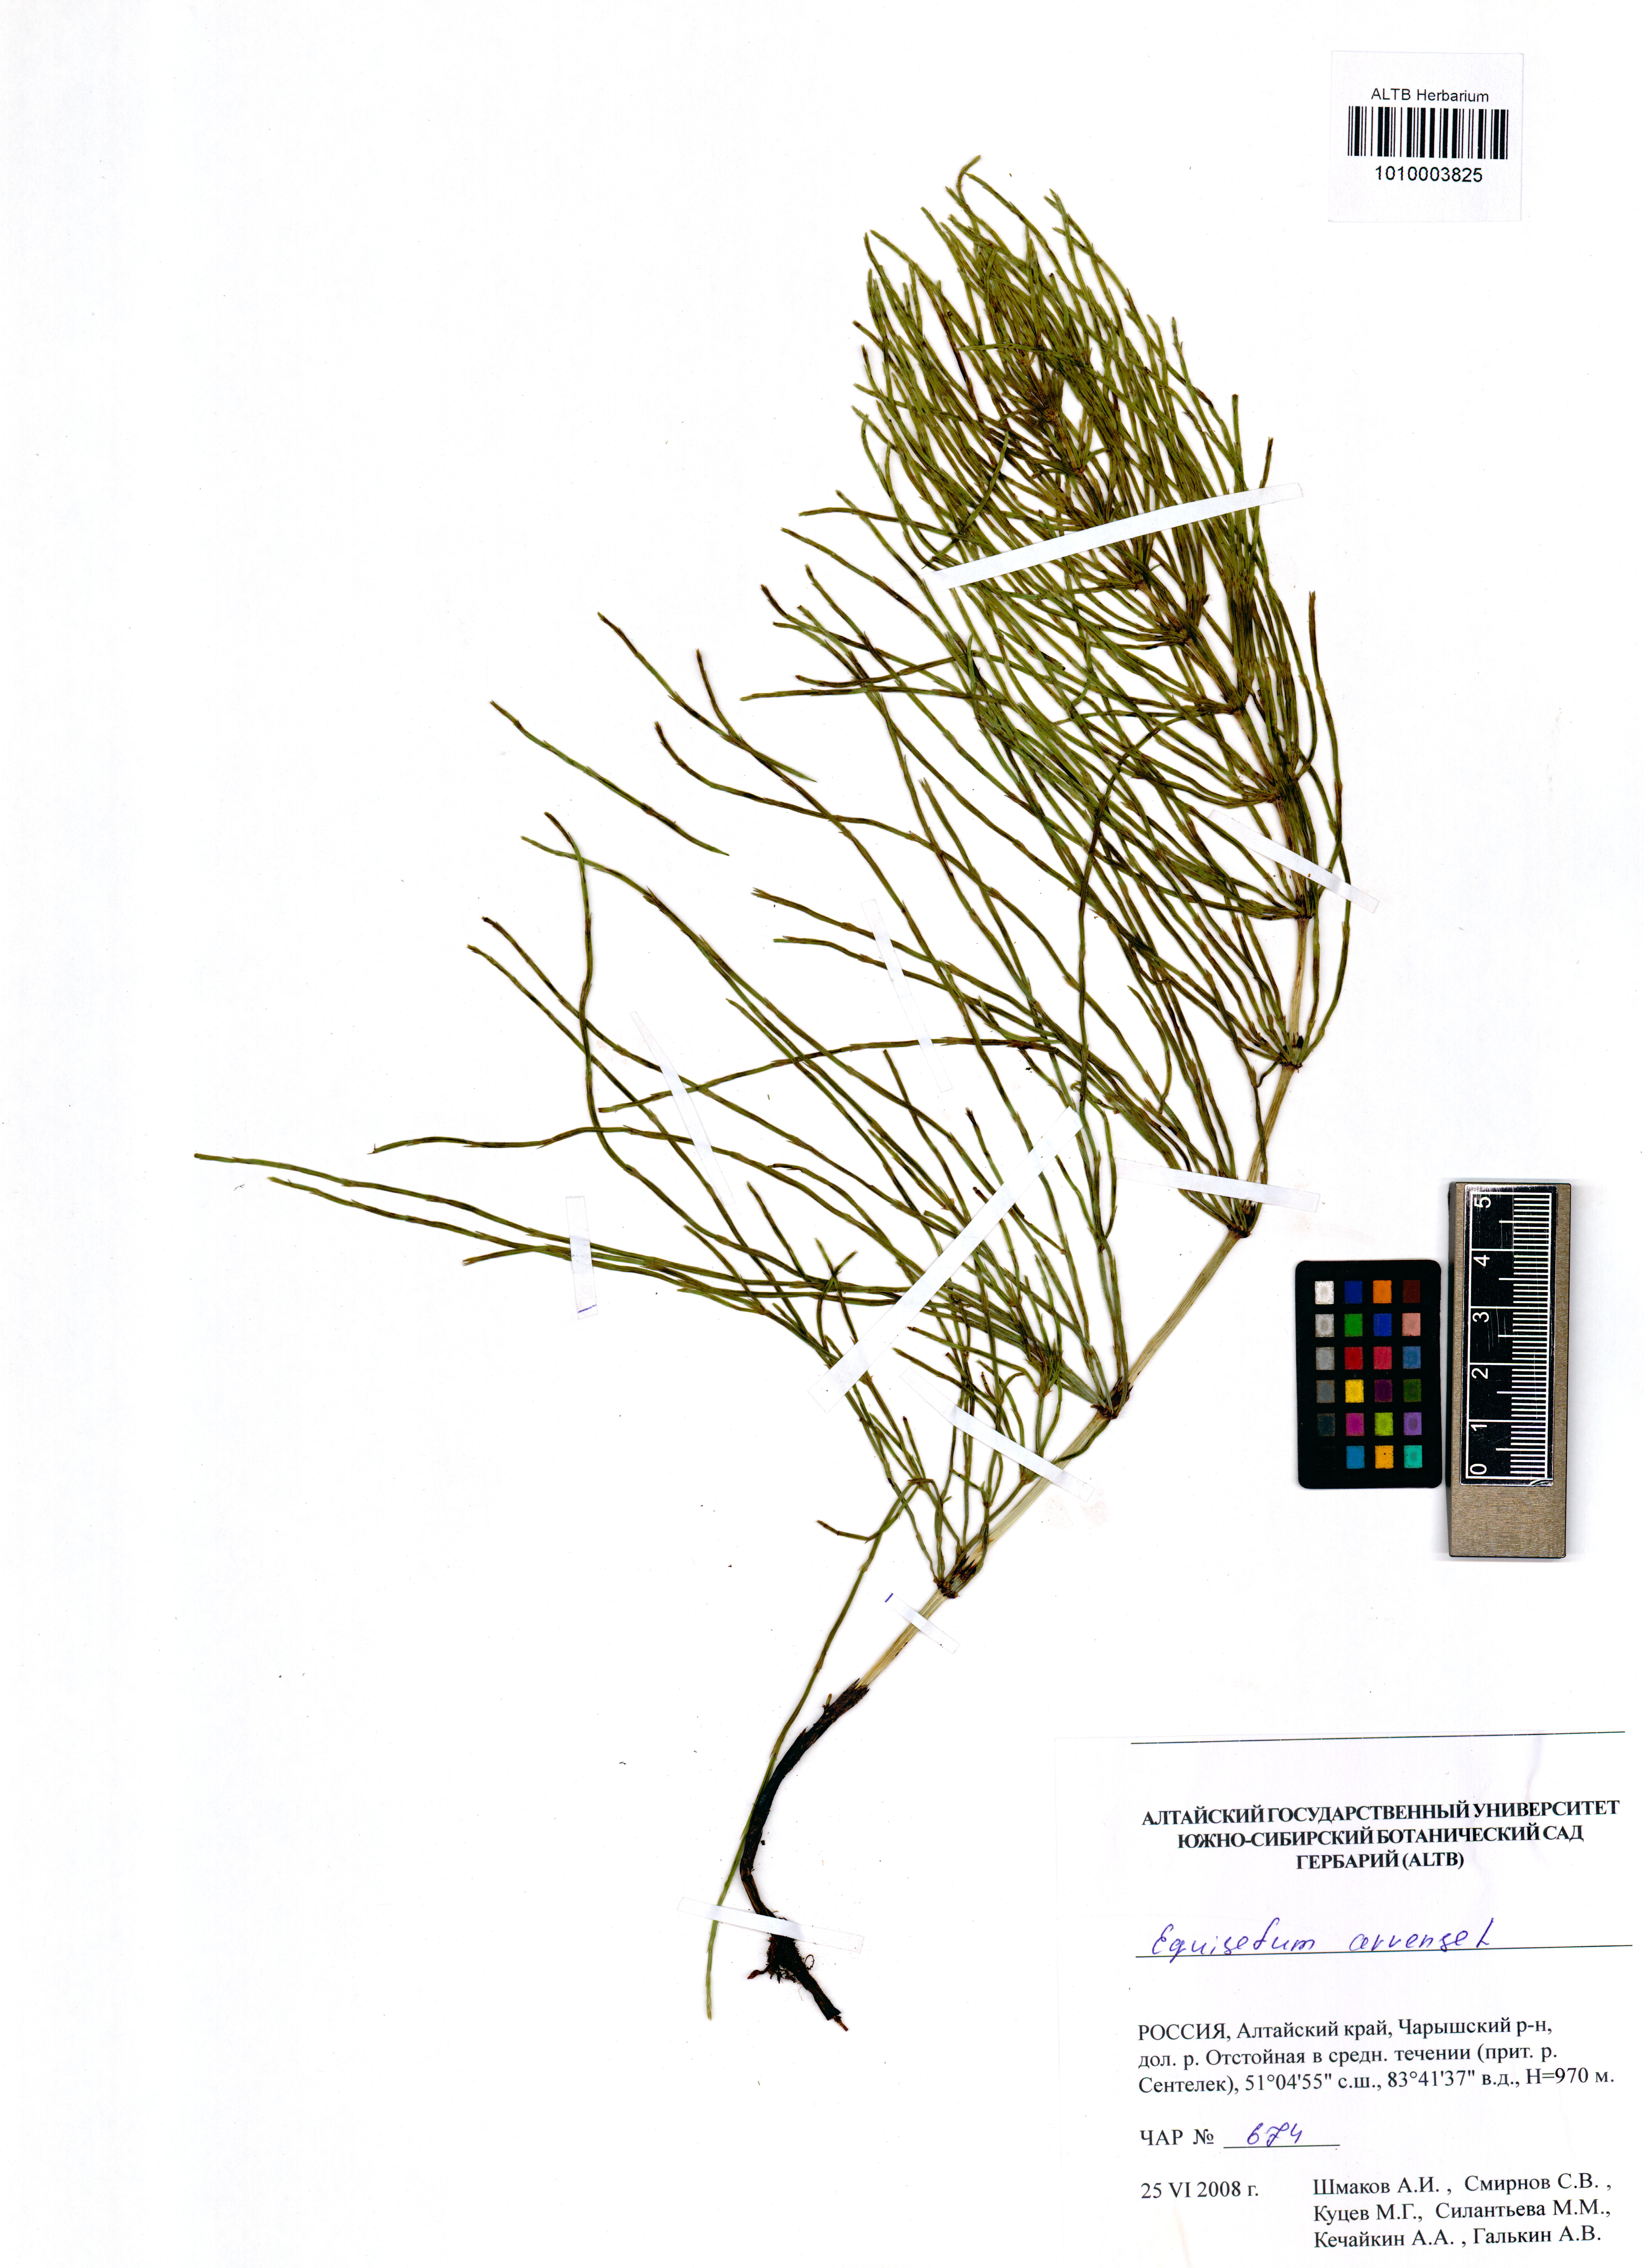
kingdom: Plantae
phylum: Tracheophyta
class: Polypodiopsida
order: Equisetales
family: Equisetaceae
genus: Equisetum
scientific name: Equisetum arvense
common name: Field horsetail
